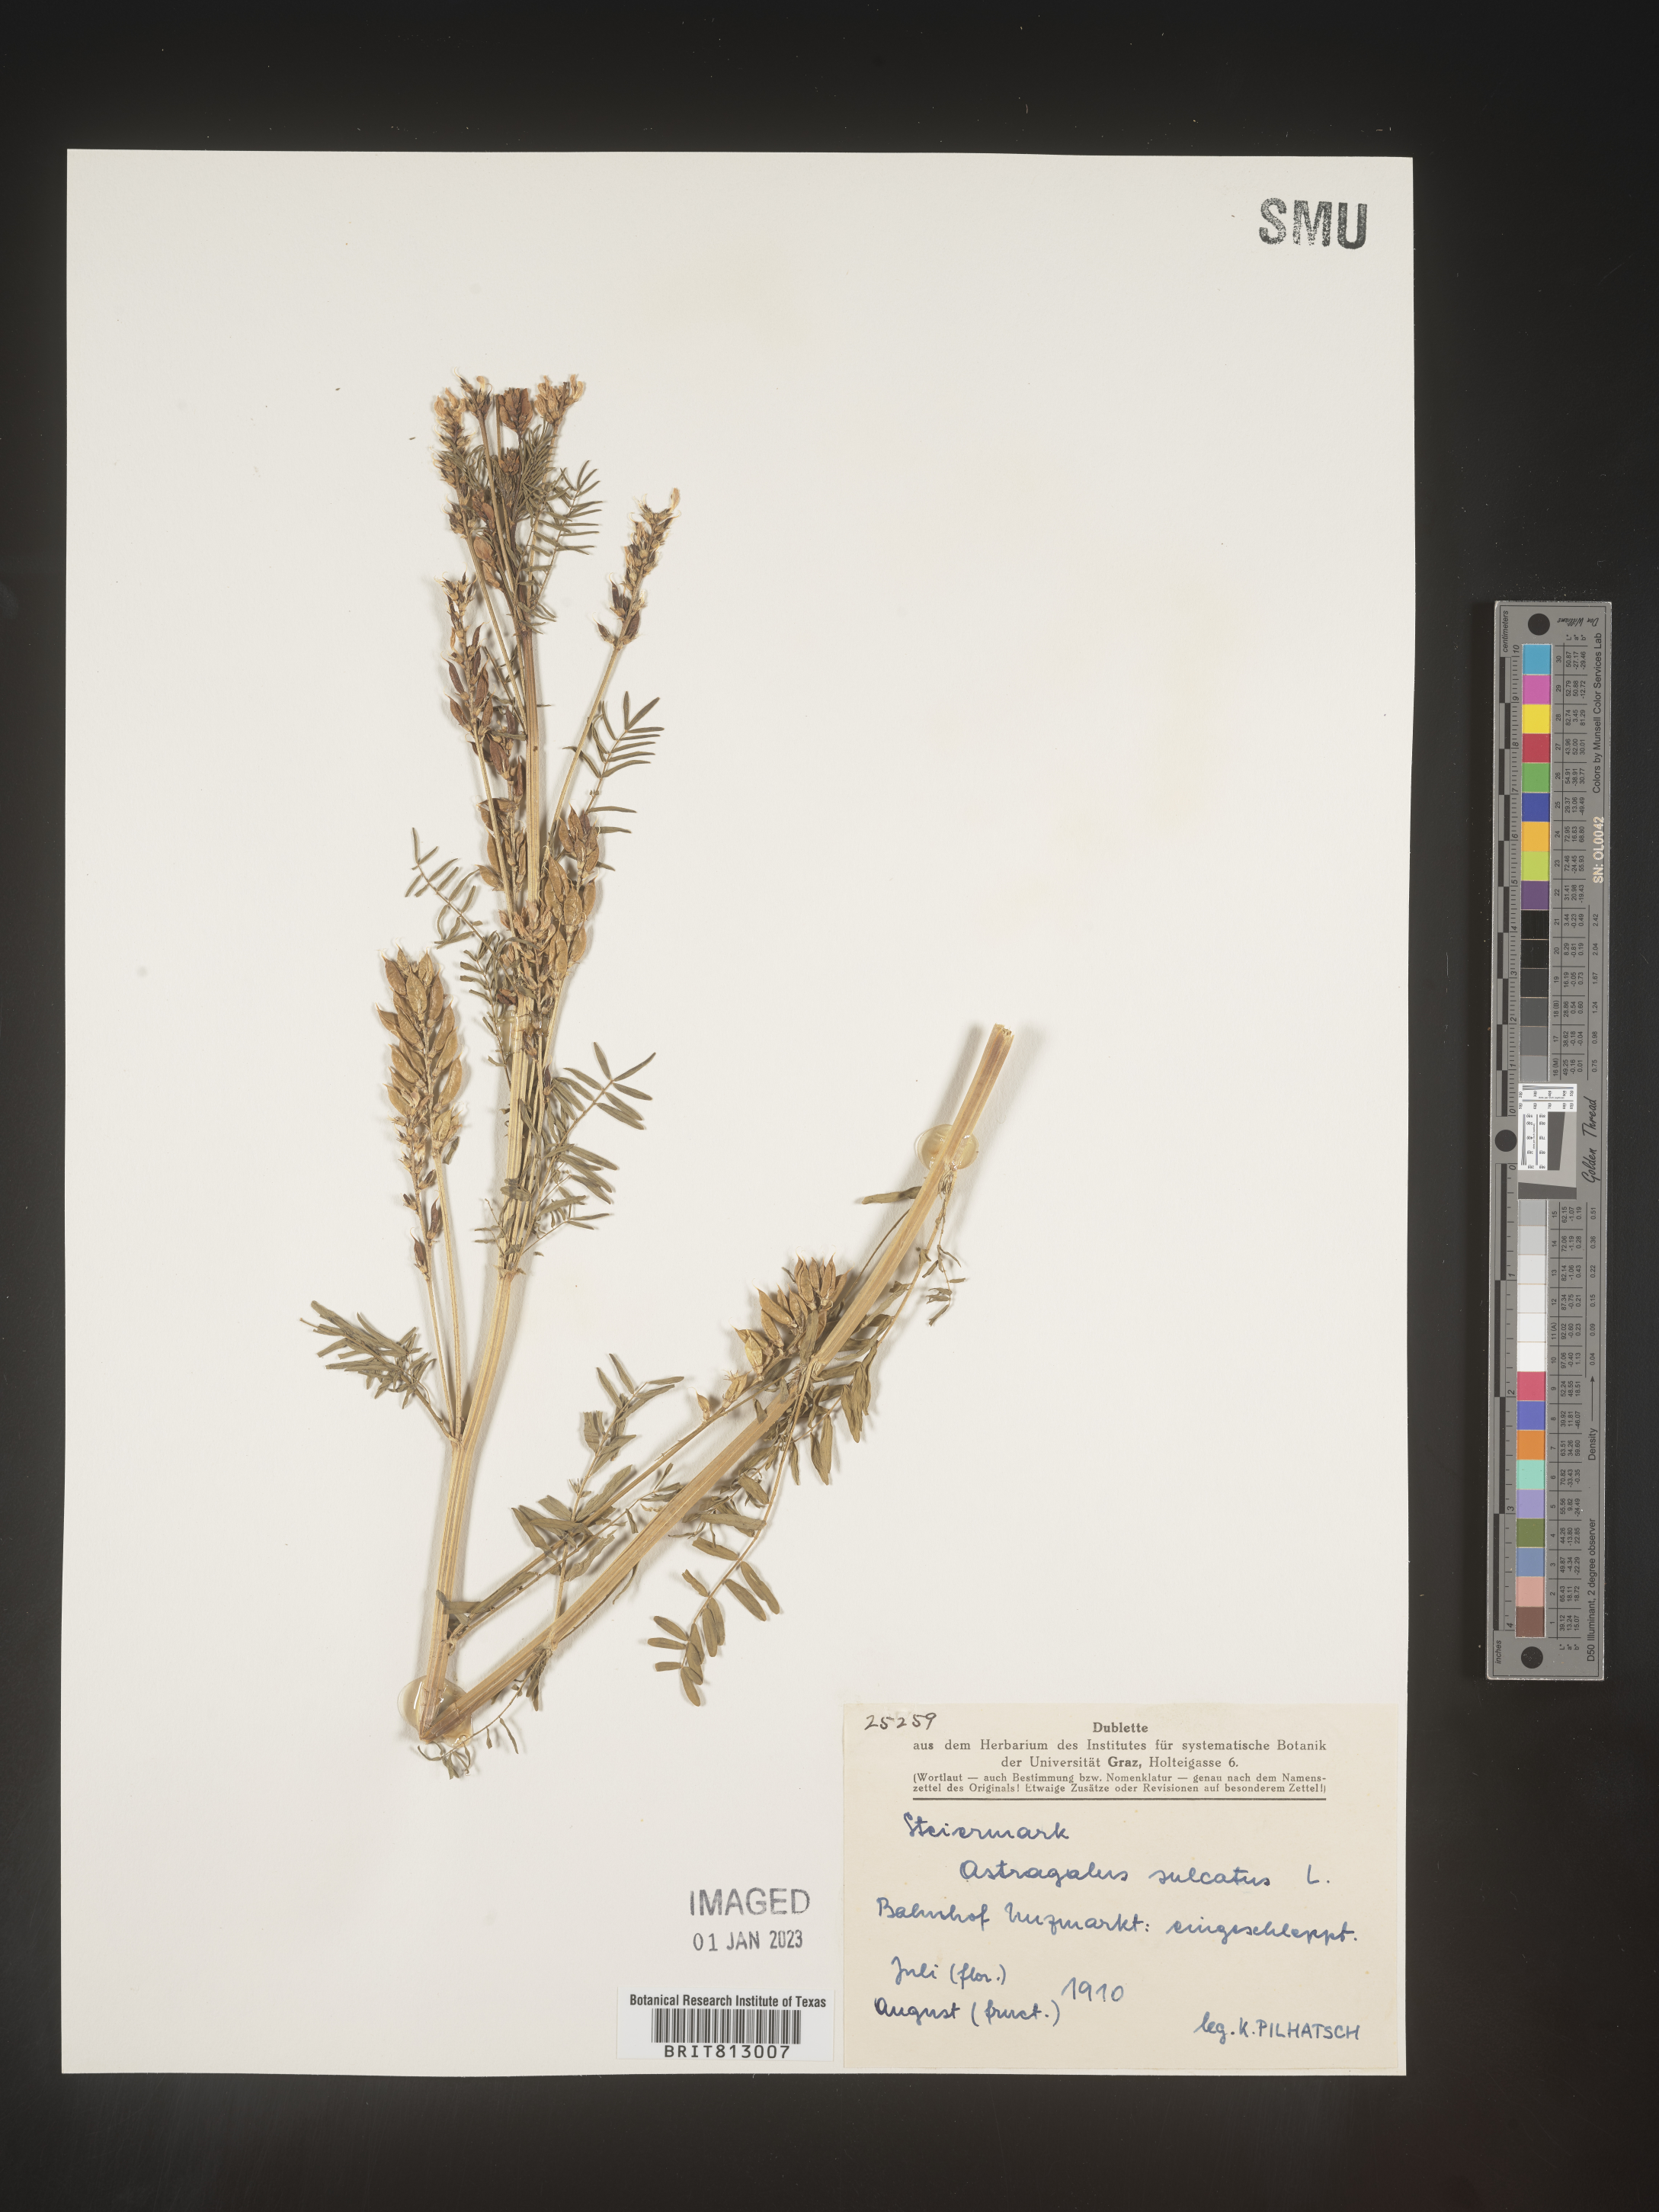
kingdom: Plantae
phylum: Tracheophyta
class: Magnoliopsida
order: Fabales
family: Fabaceae
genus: Astragalus
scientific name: Astragalus
